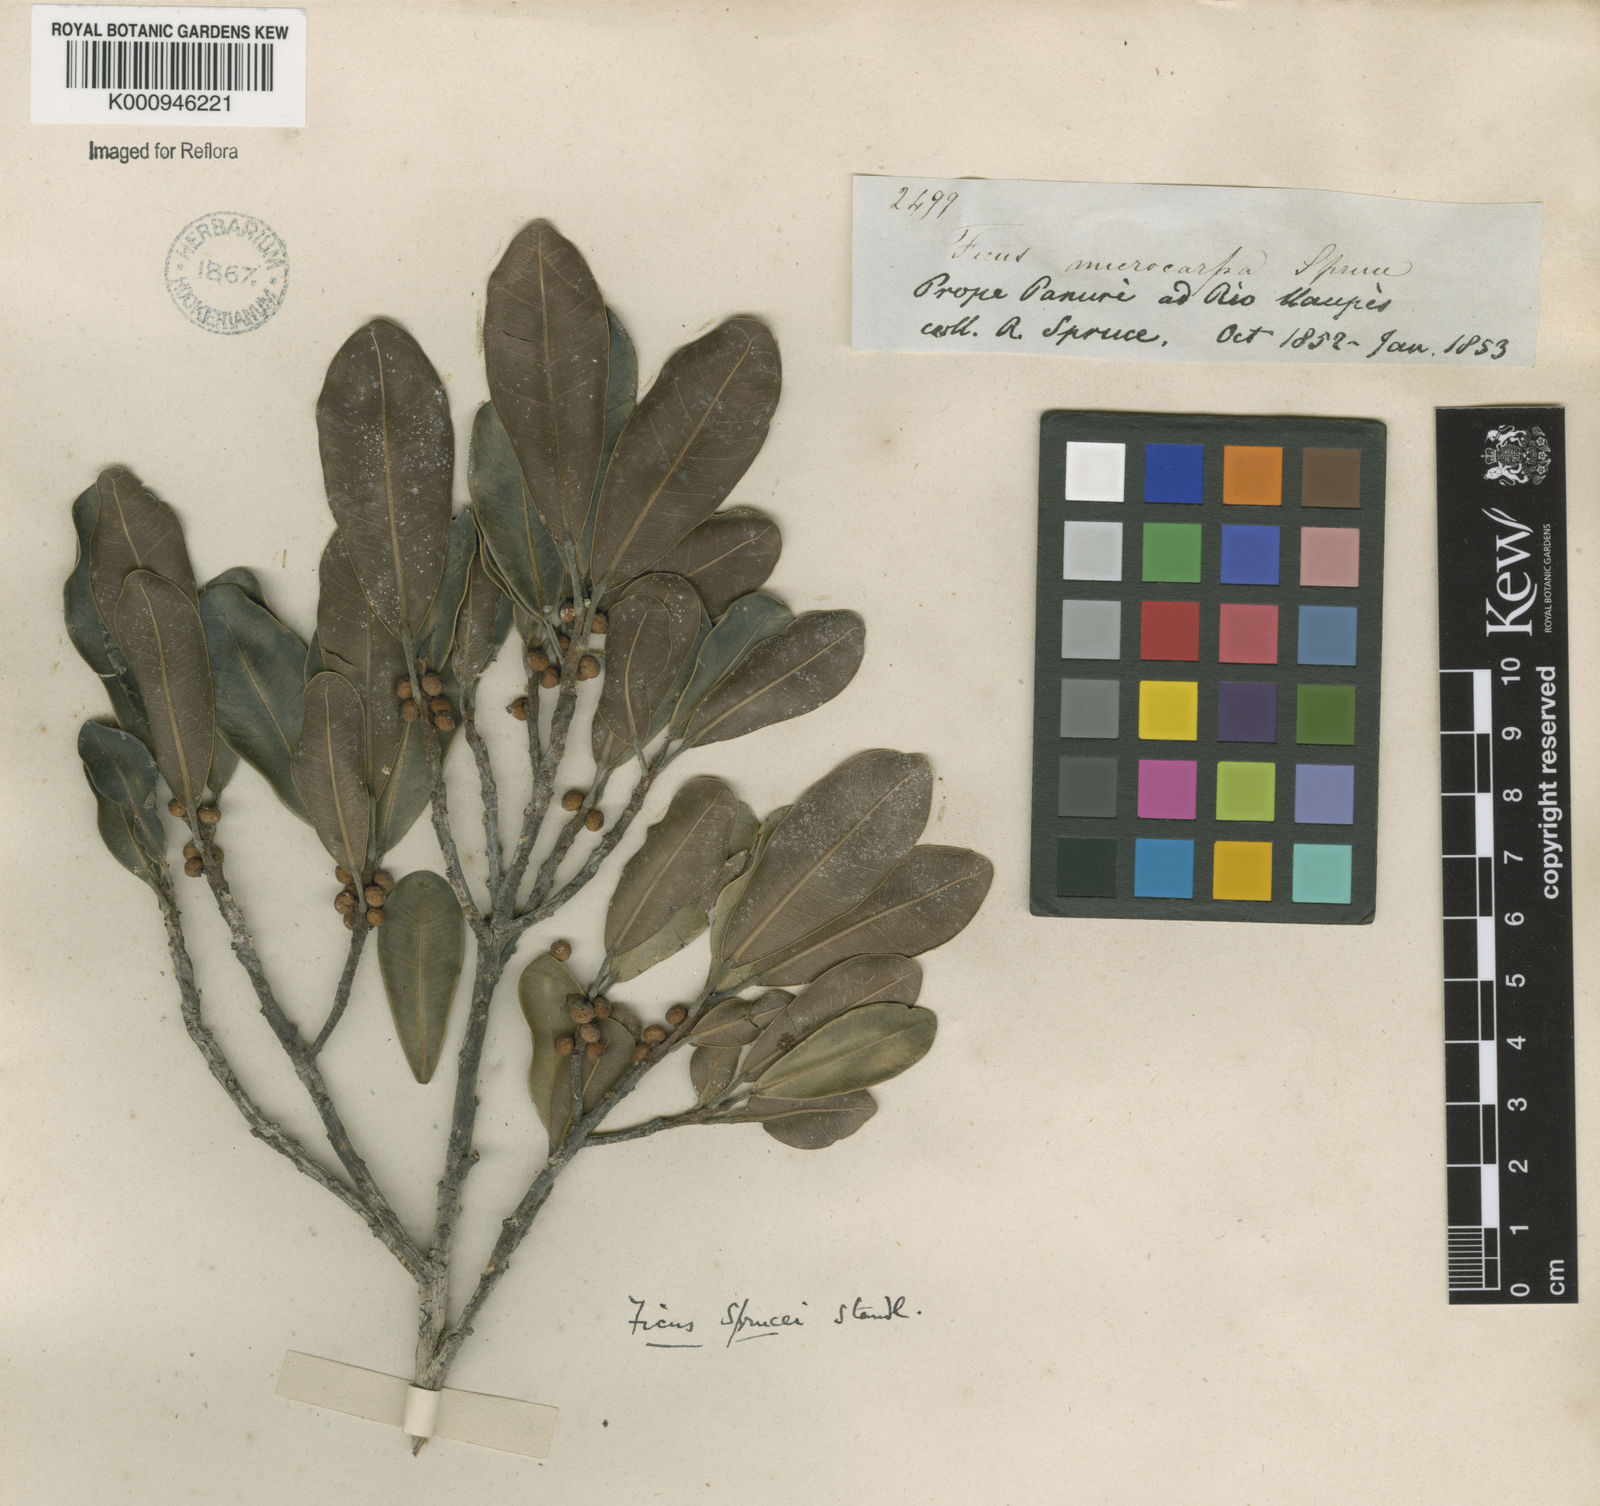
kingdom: Plantae
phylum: Tracheophyta
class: Magnoliopsida
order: Rosales
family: Moraceae
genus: Ficus
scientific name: Ficus mathewsii
